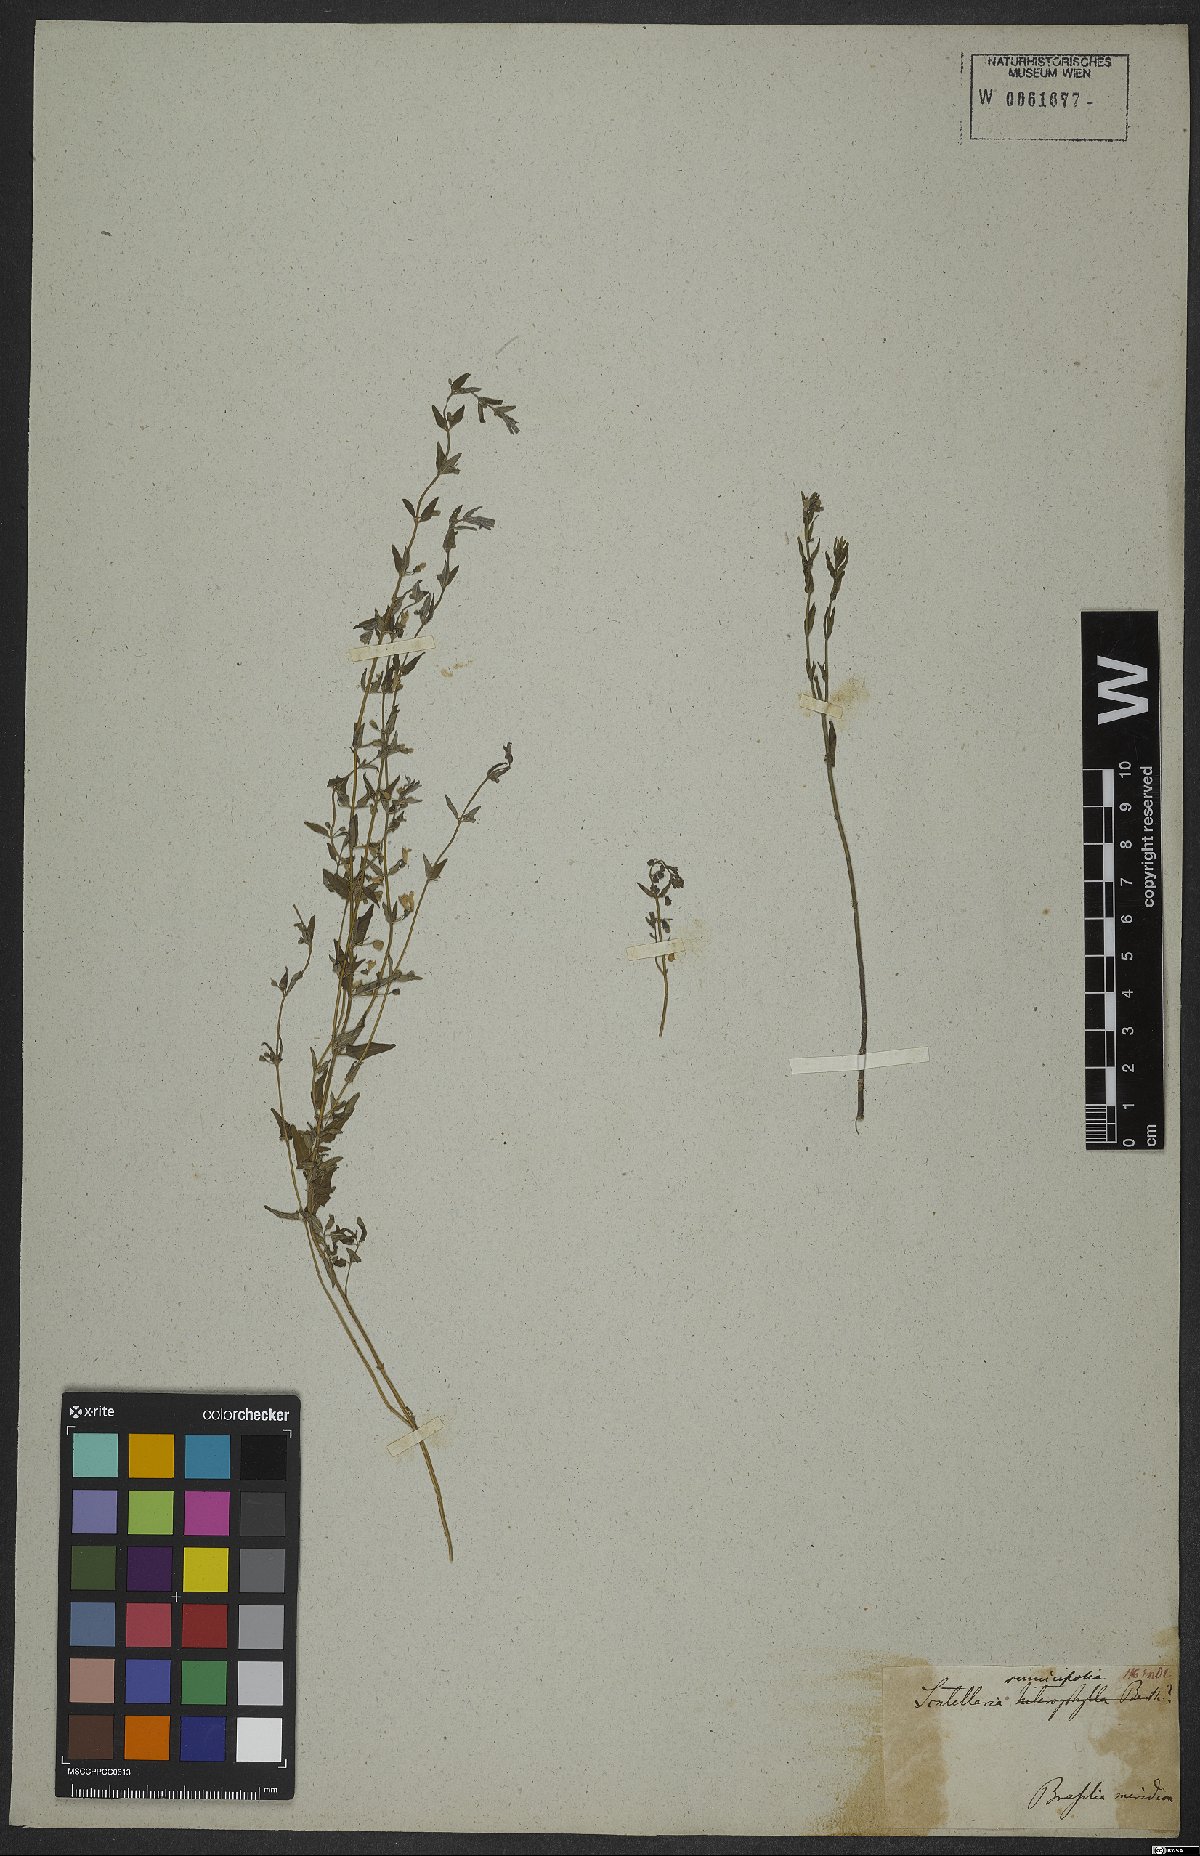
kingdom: Plantae
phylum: Tracheophyta
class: Magnoliopsida
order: Lamiales
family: Lamiaceae
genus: Scutellaria
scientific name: Scutellaria racemosa
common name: South american skullcap
